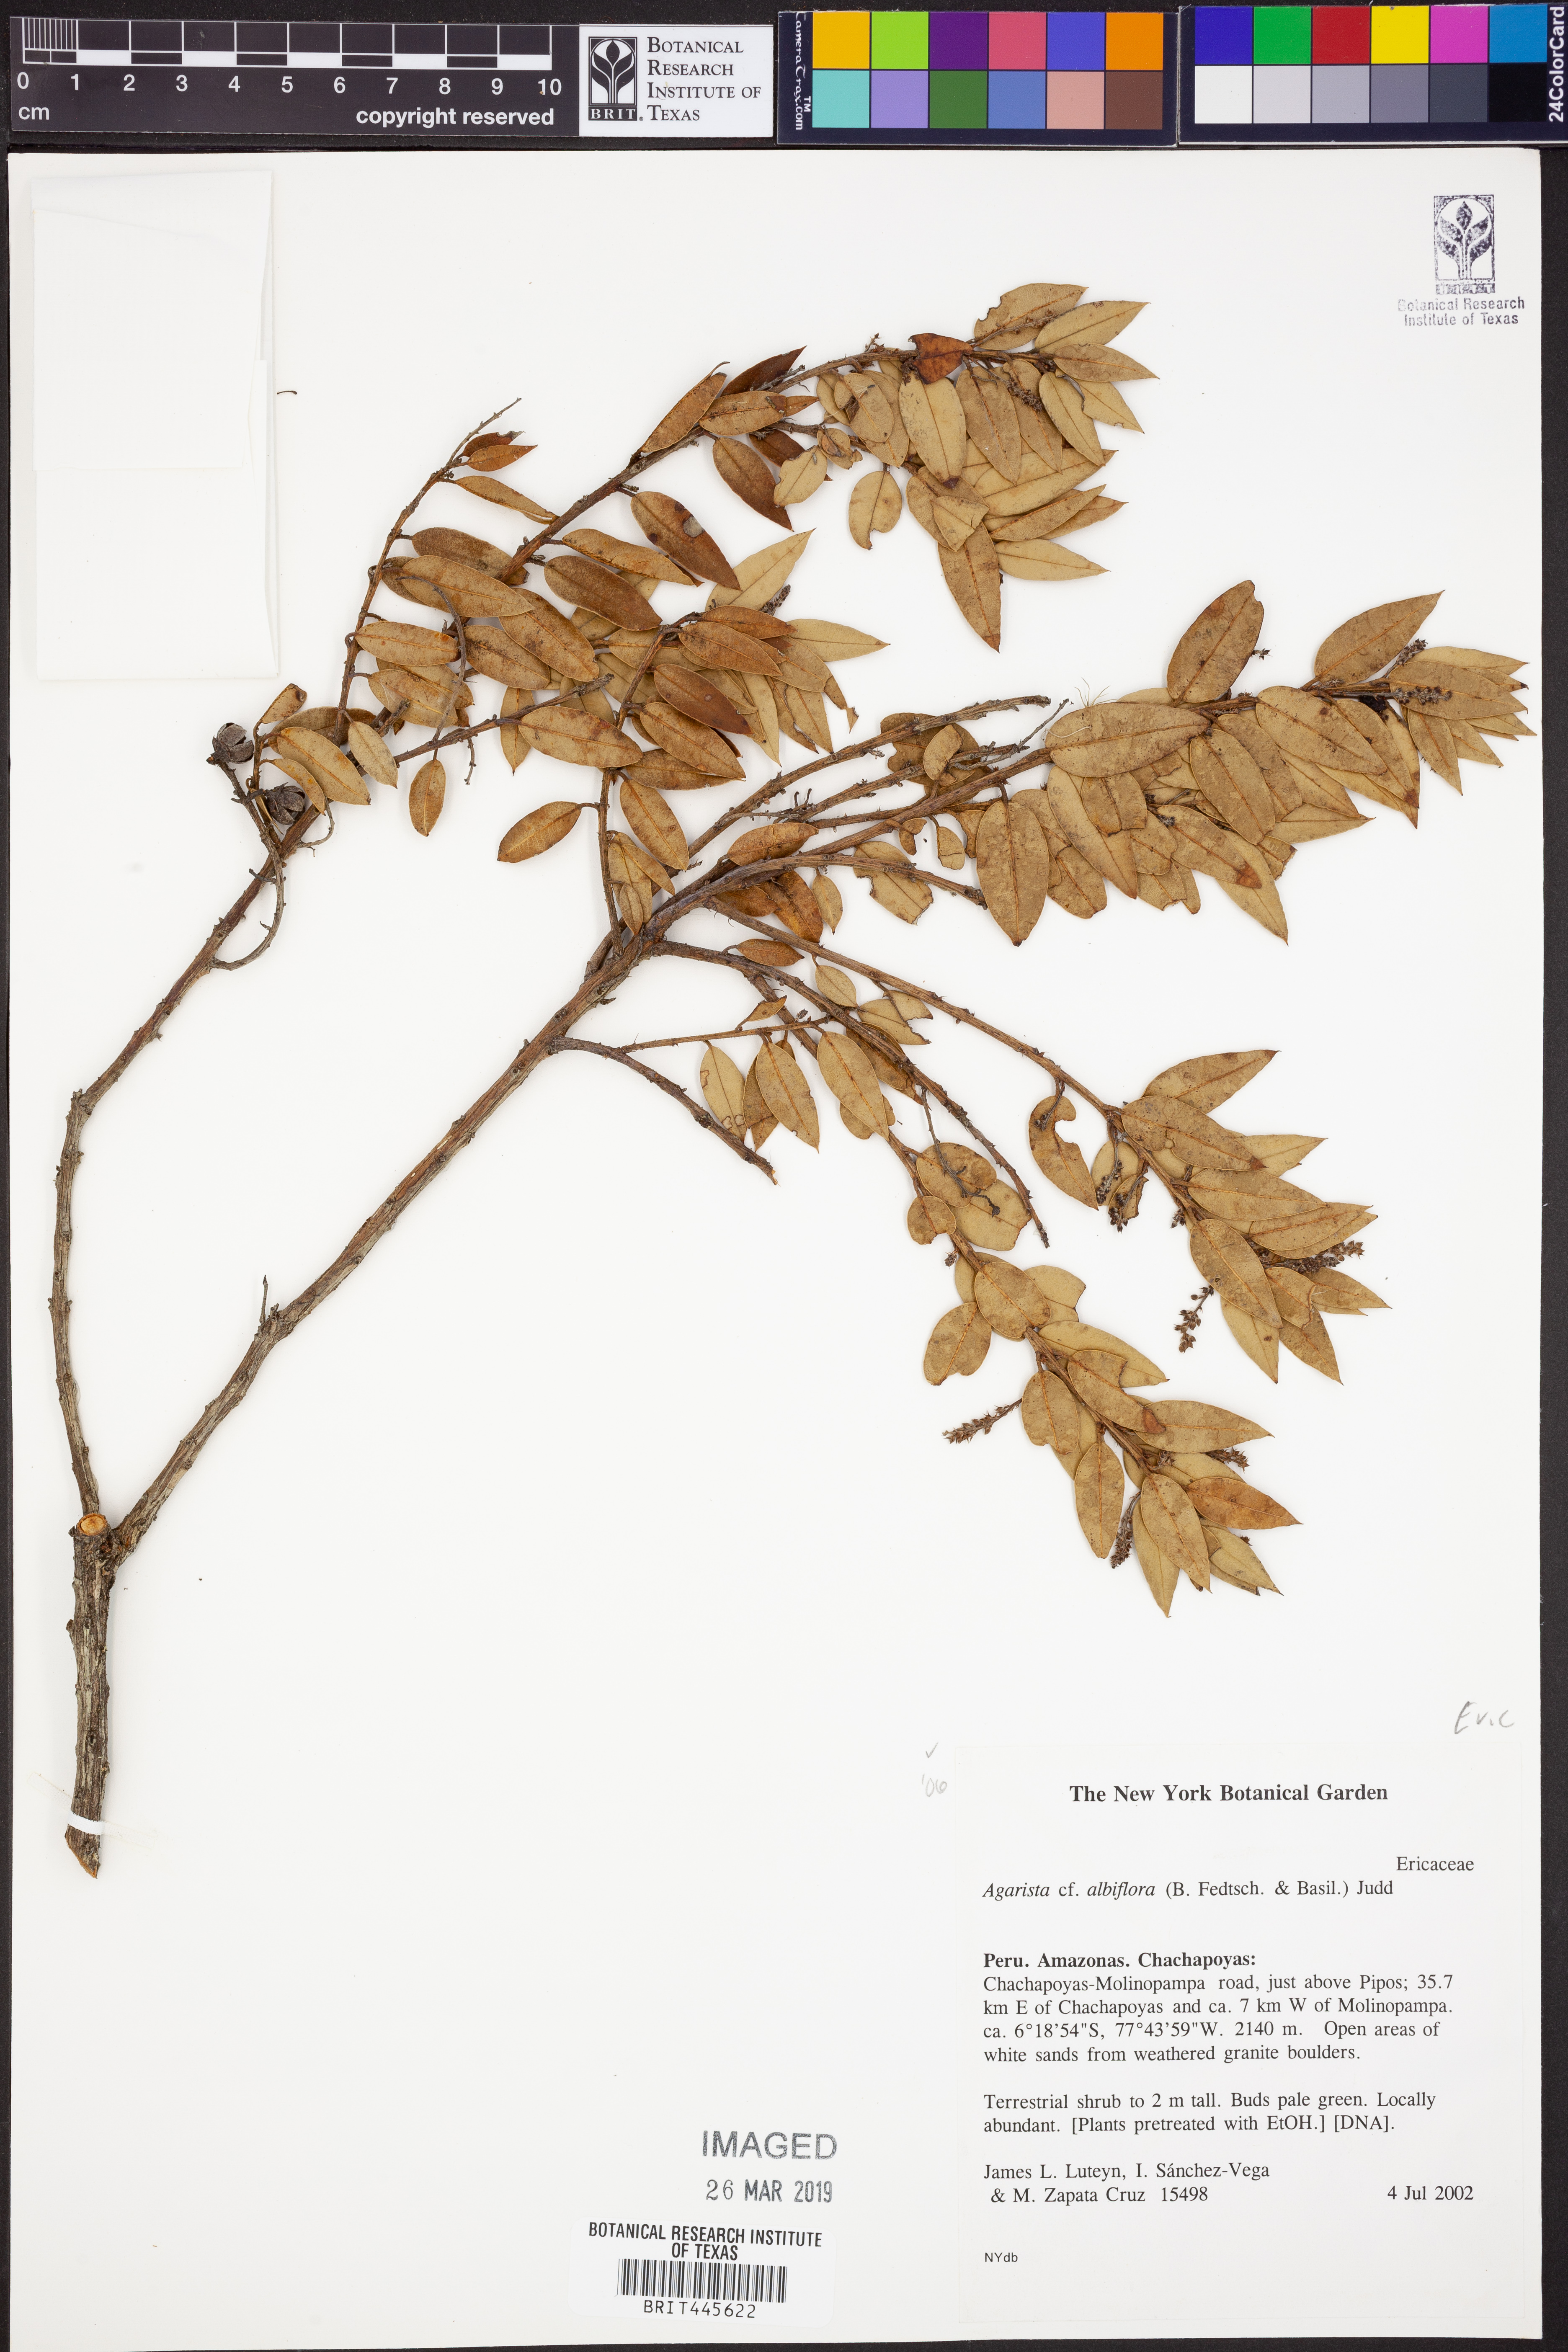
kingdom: Plantae
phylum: Tracheophyta
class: Magnoliopsida
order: Ericales
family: Ericaceae
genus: Agarista
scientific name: Agarista albiflora
